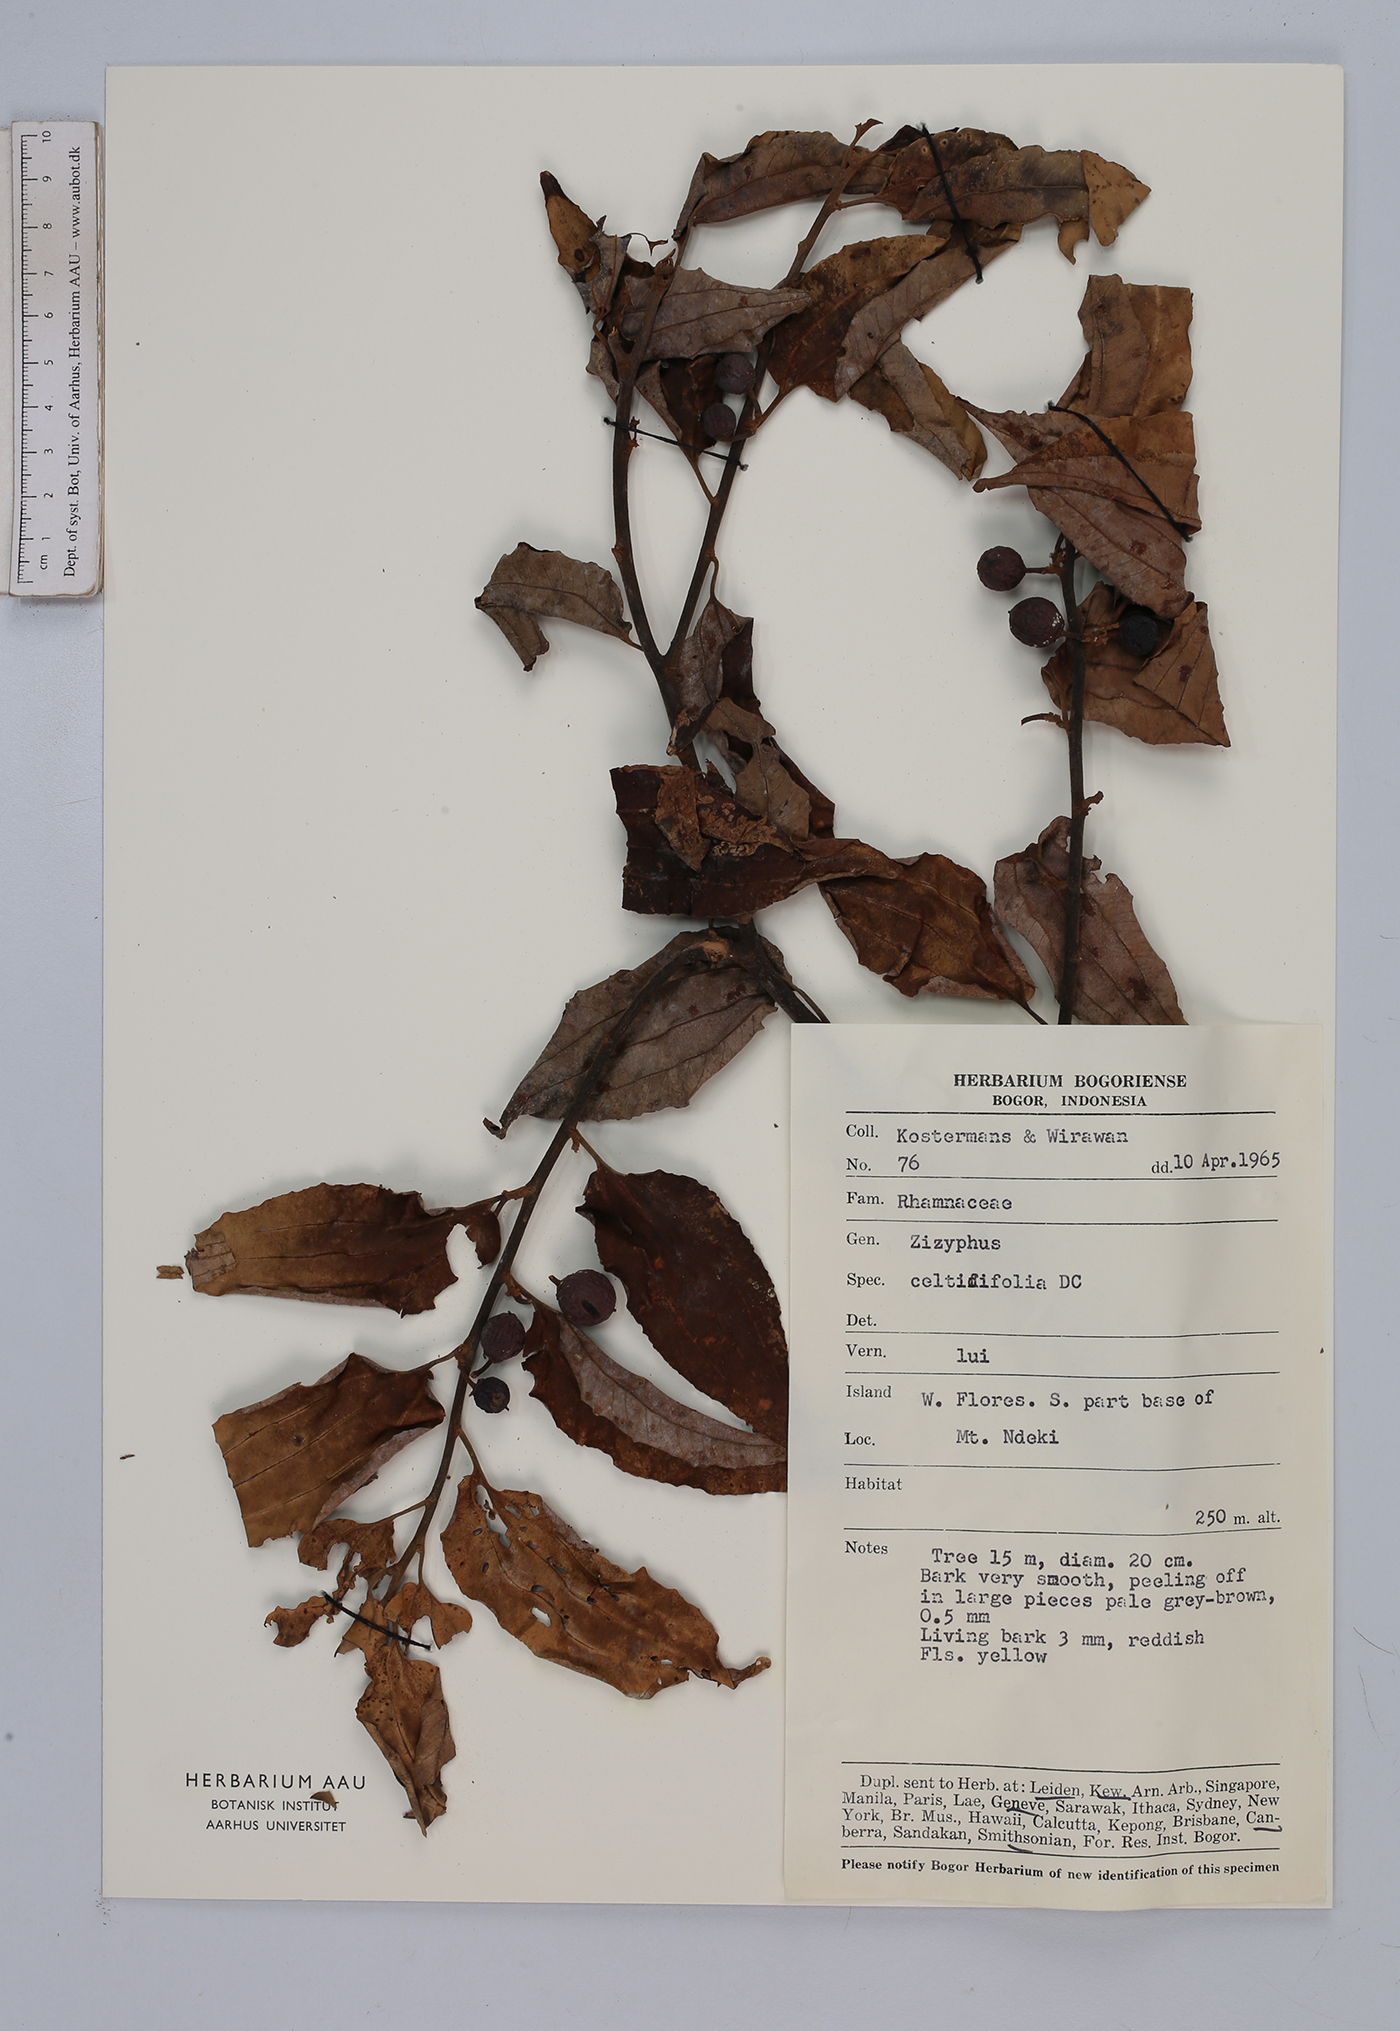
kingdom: Plantae
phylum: Tracheophyta
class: Magnoliopsida
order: Rosales
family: Rhamnaceae
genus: Ziziphus
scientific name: Ziziphus oenopolia
